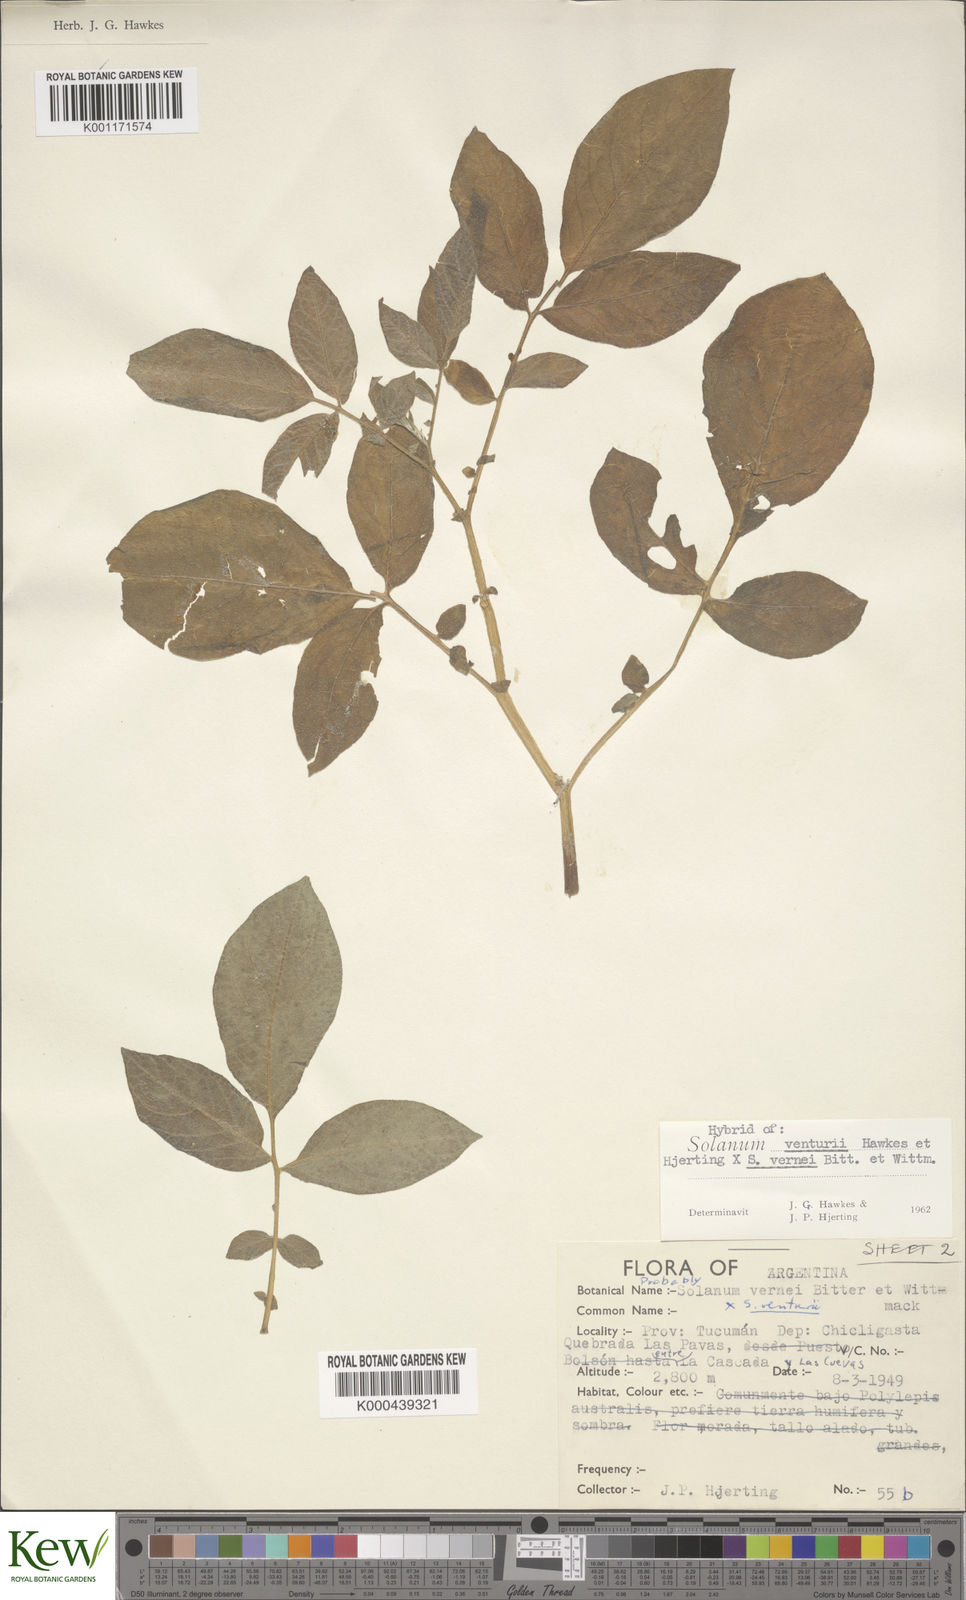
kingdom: Plantae
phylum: Tracheophyta
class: Magnoliopsida
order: Solanales
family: Solanaceae
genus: Solanum
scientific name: Solanum venturii
